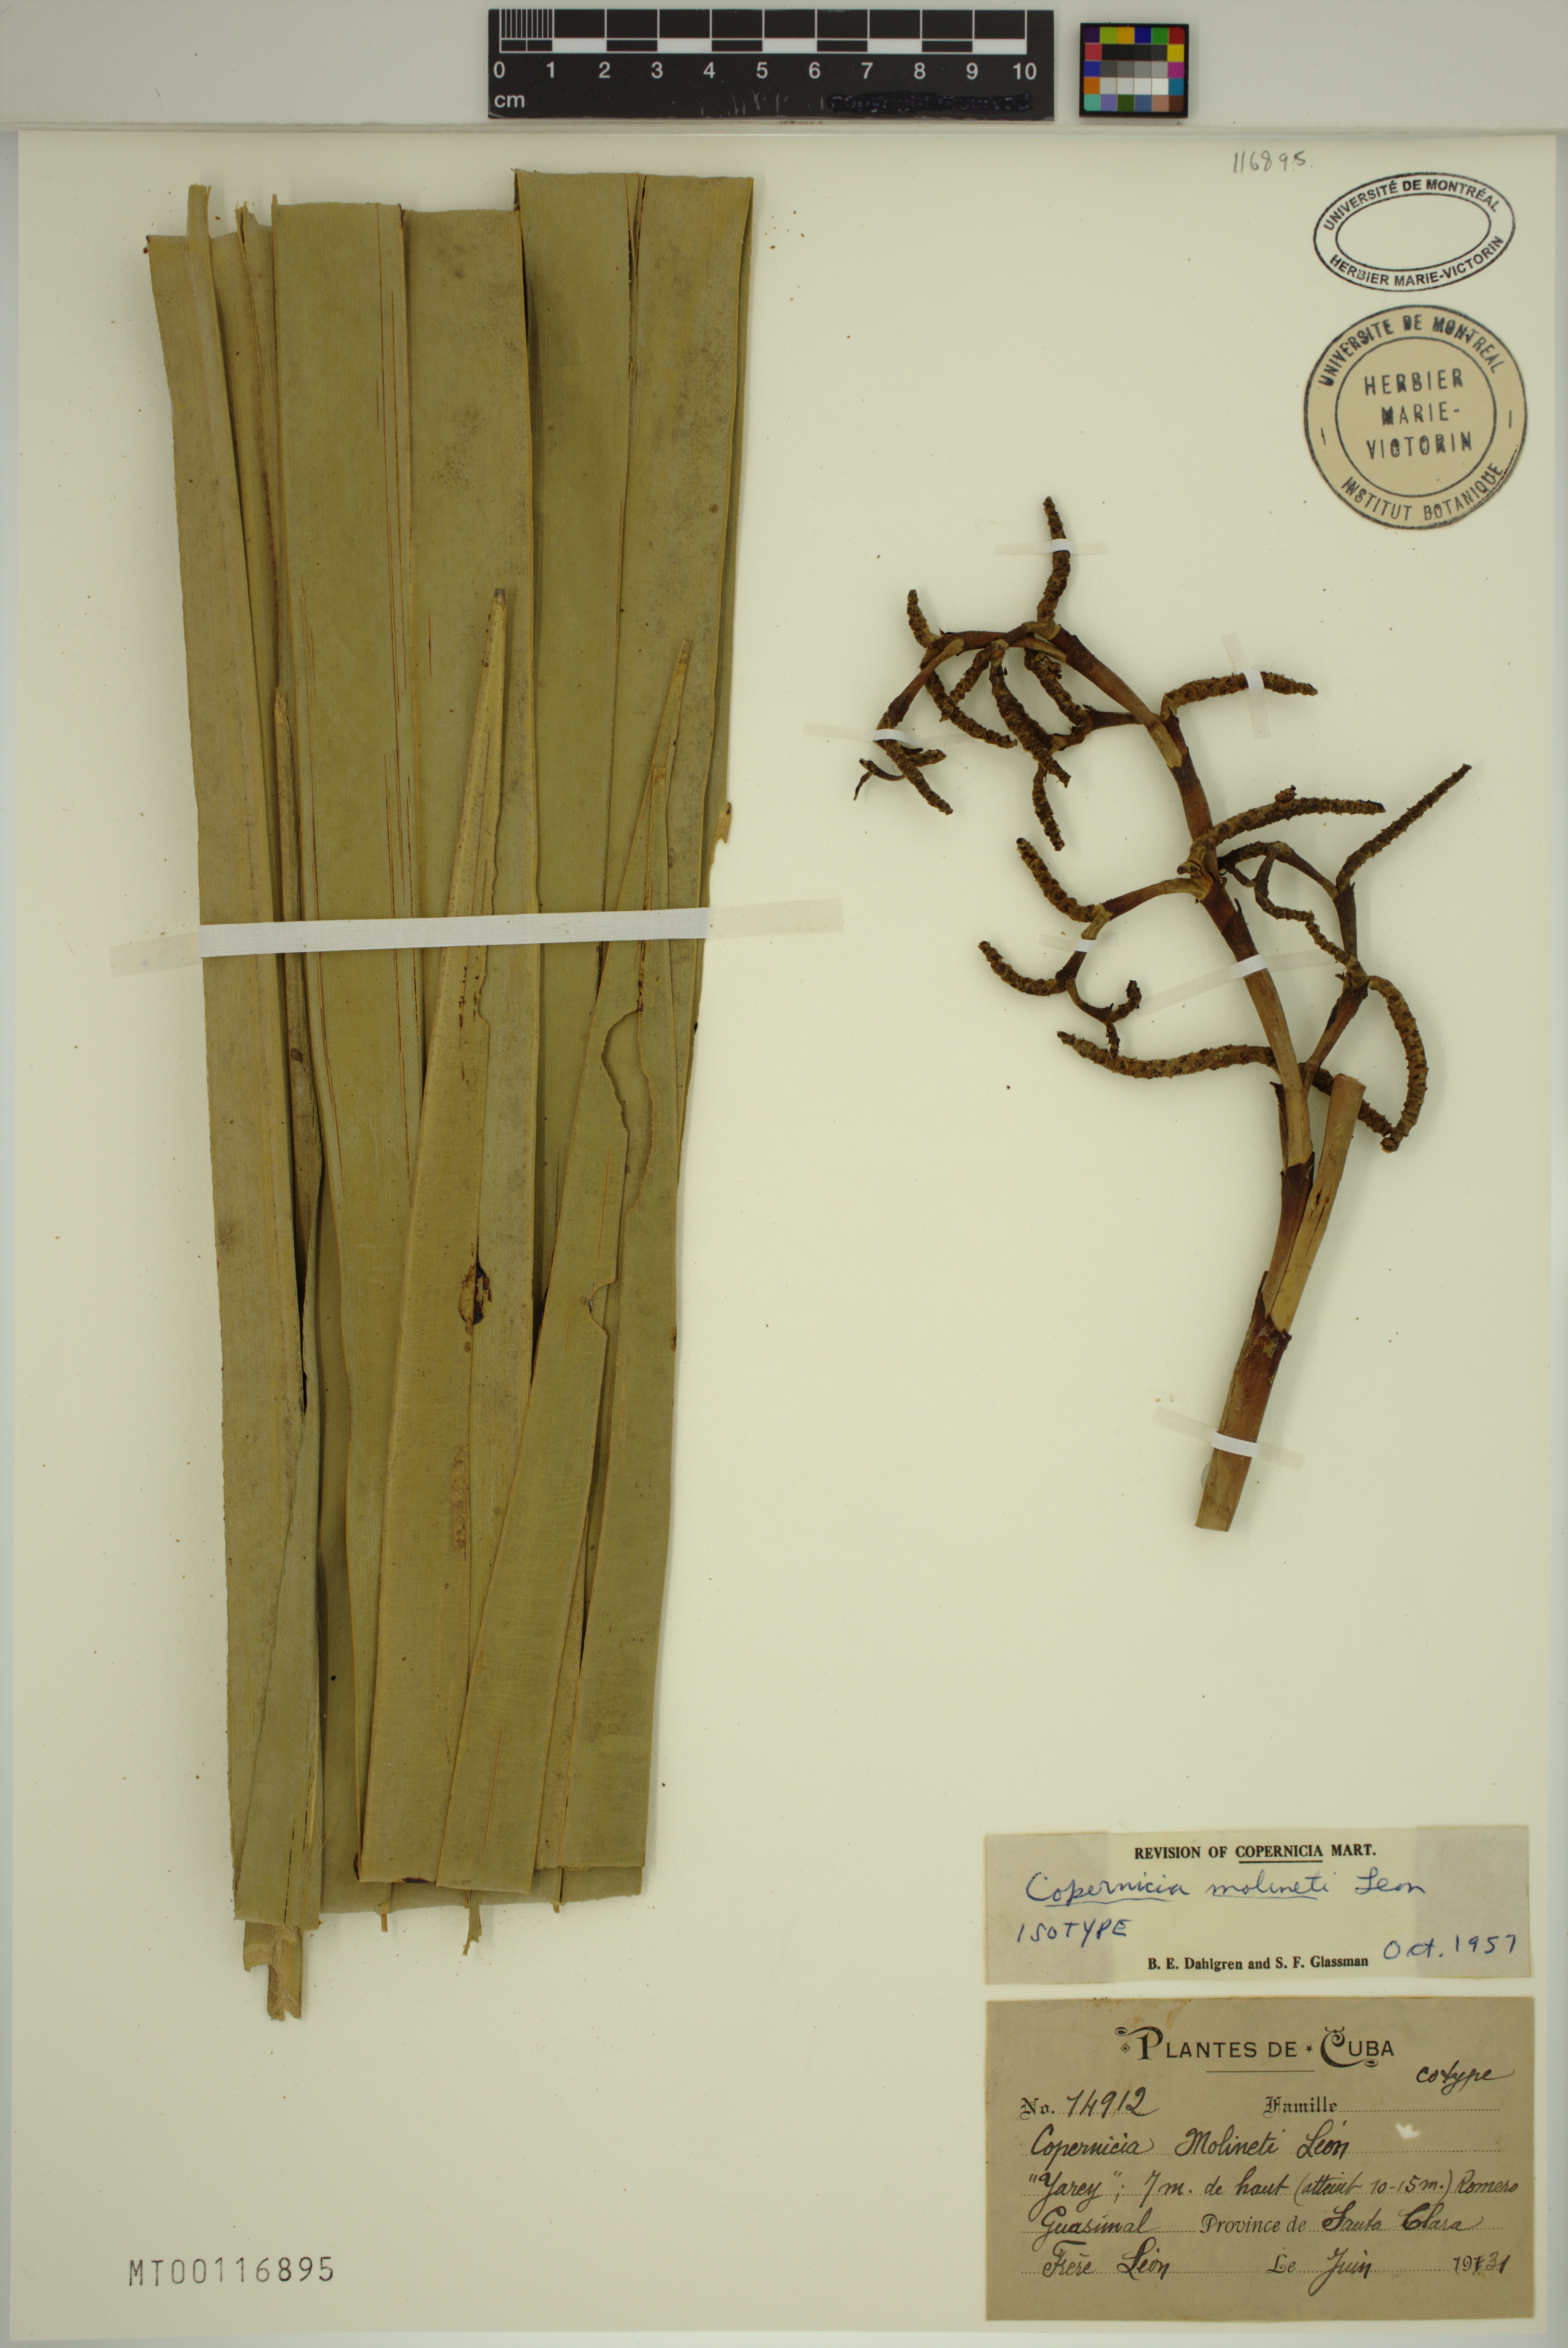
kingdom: Plantae
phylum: Tracheophyta
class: Liliopsida
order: Arecales
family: Arecaceae
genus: Copernicia
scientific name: Copernicia molinetii
